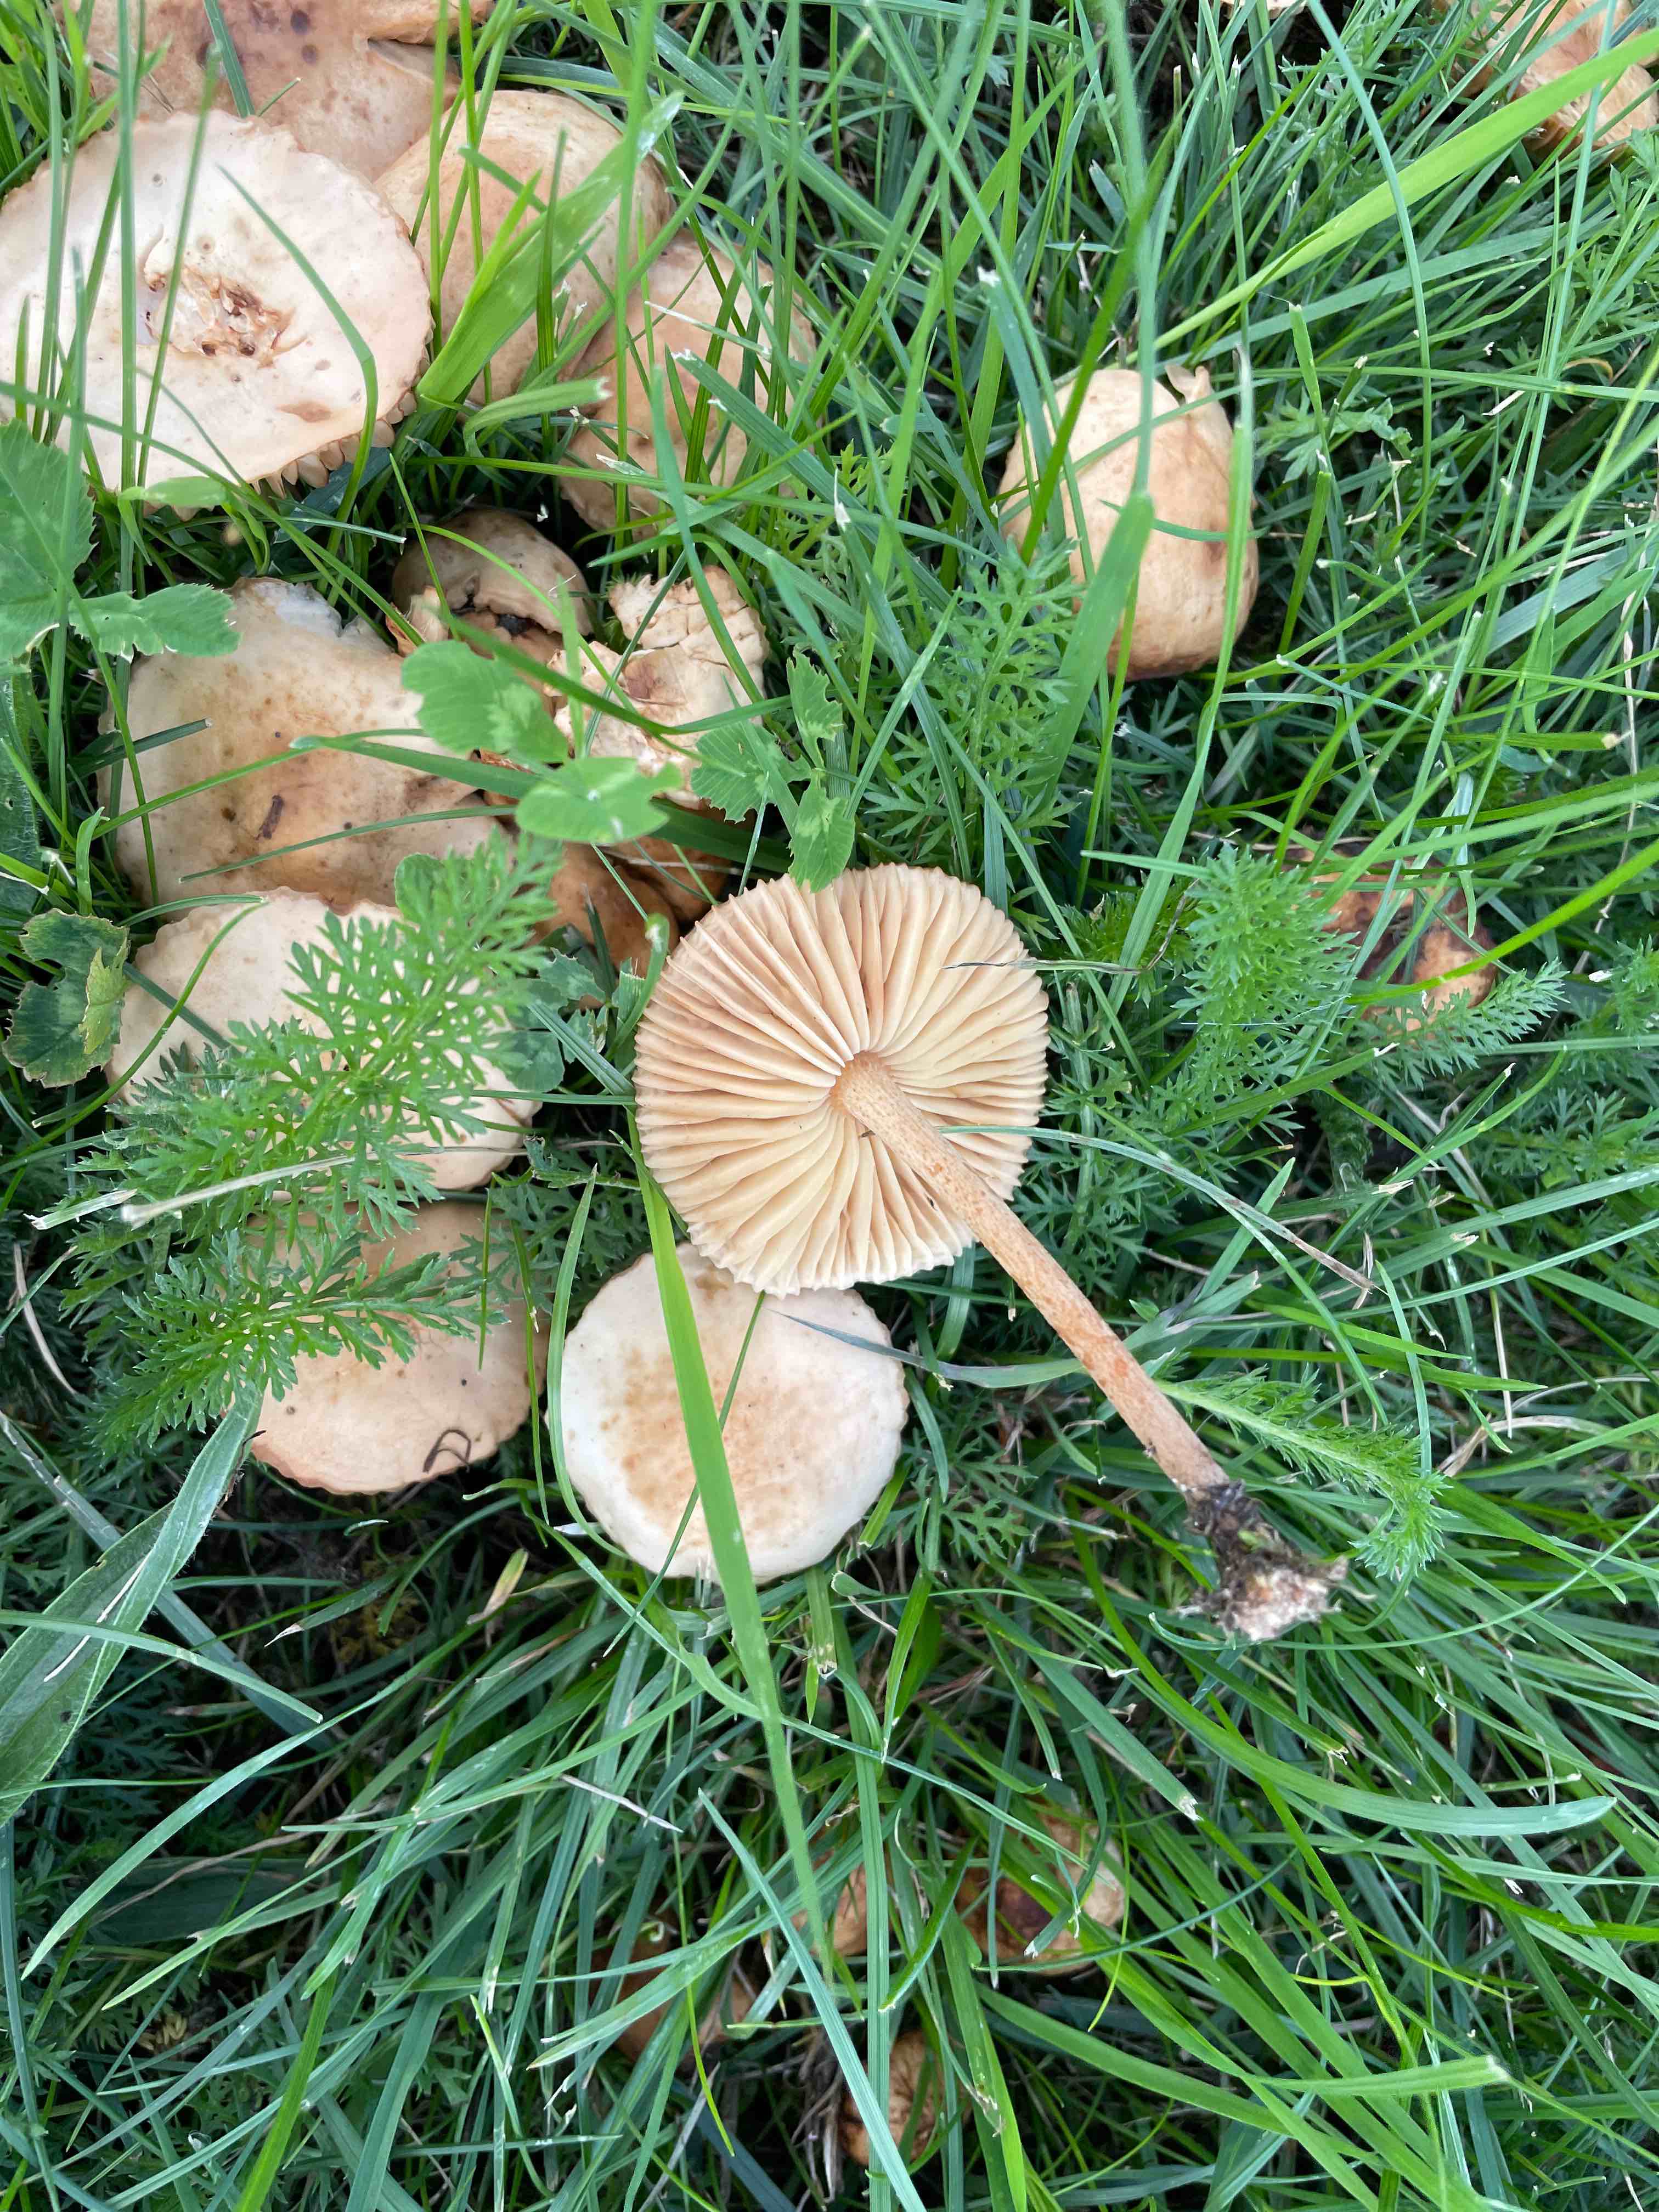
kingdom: Fungi
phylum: Basidiomycota
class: Agaricomycetes
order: Agaricales
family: Marasmiaceae
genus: Marasmius
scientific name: Marasmius oreades
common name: elledans-bruskhat
